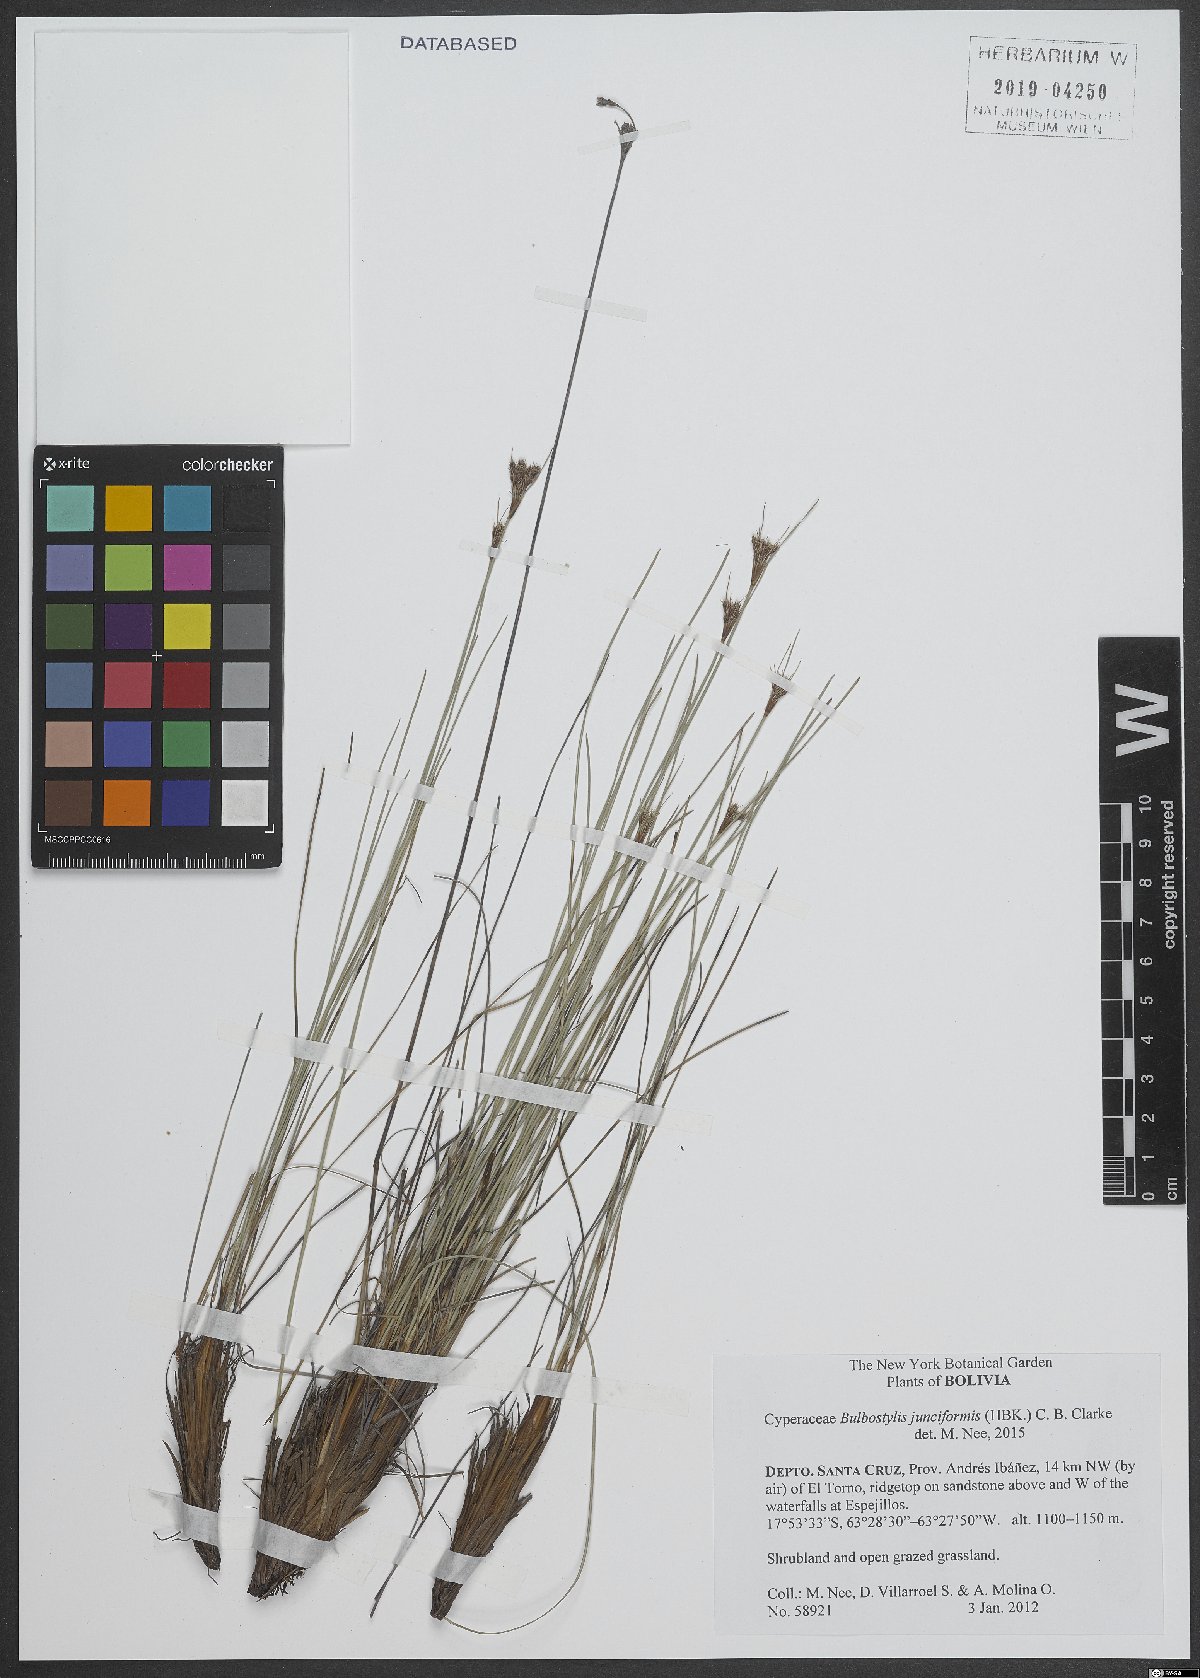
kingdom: Plantae
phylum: Tracheophyta
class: Liliopsida
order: Poales
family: Cyperaceae
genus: Bulbostylis
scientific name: Bulbostylis junciformis
